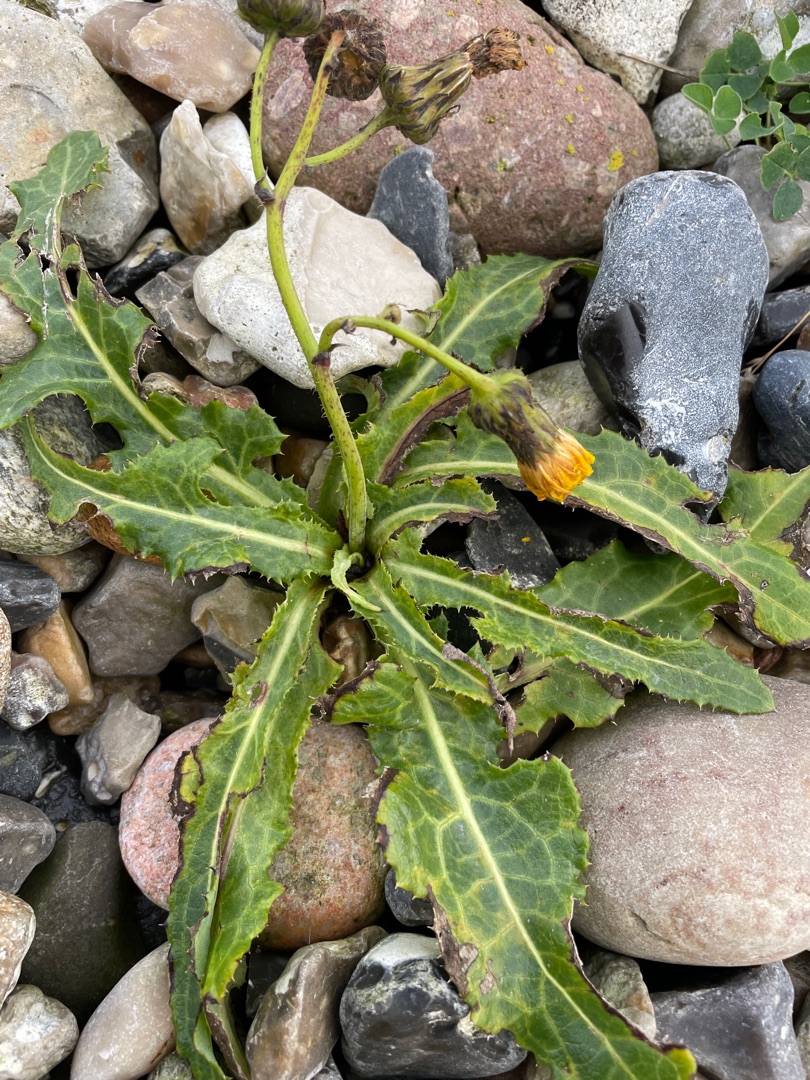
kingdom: Plantae
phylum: Tracheophyta
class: Magnoliopsida
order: Asterales
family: Asteraceae
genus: Sonchus
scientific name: Sonchus arvensis
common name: Ager-svinemælk
